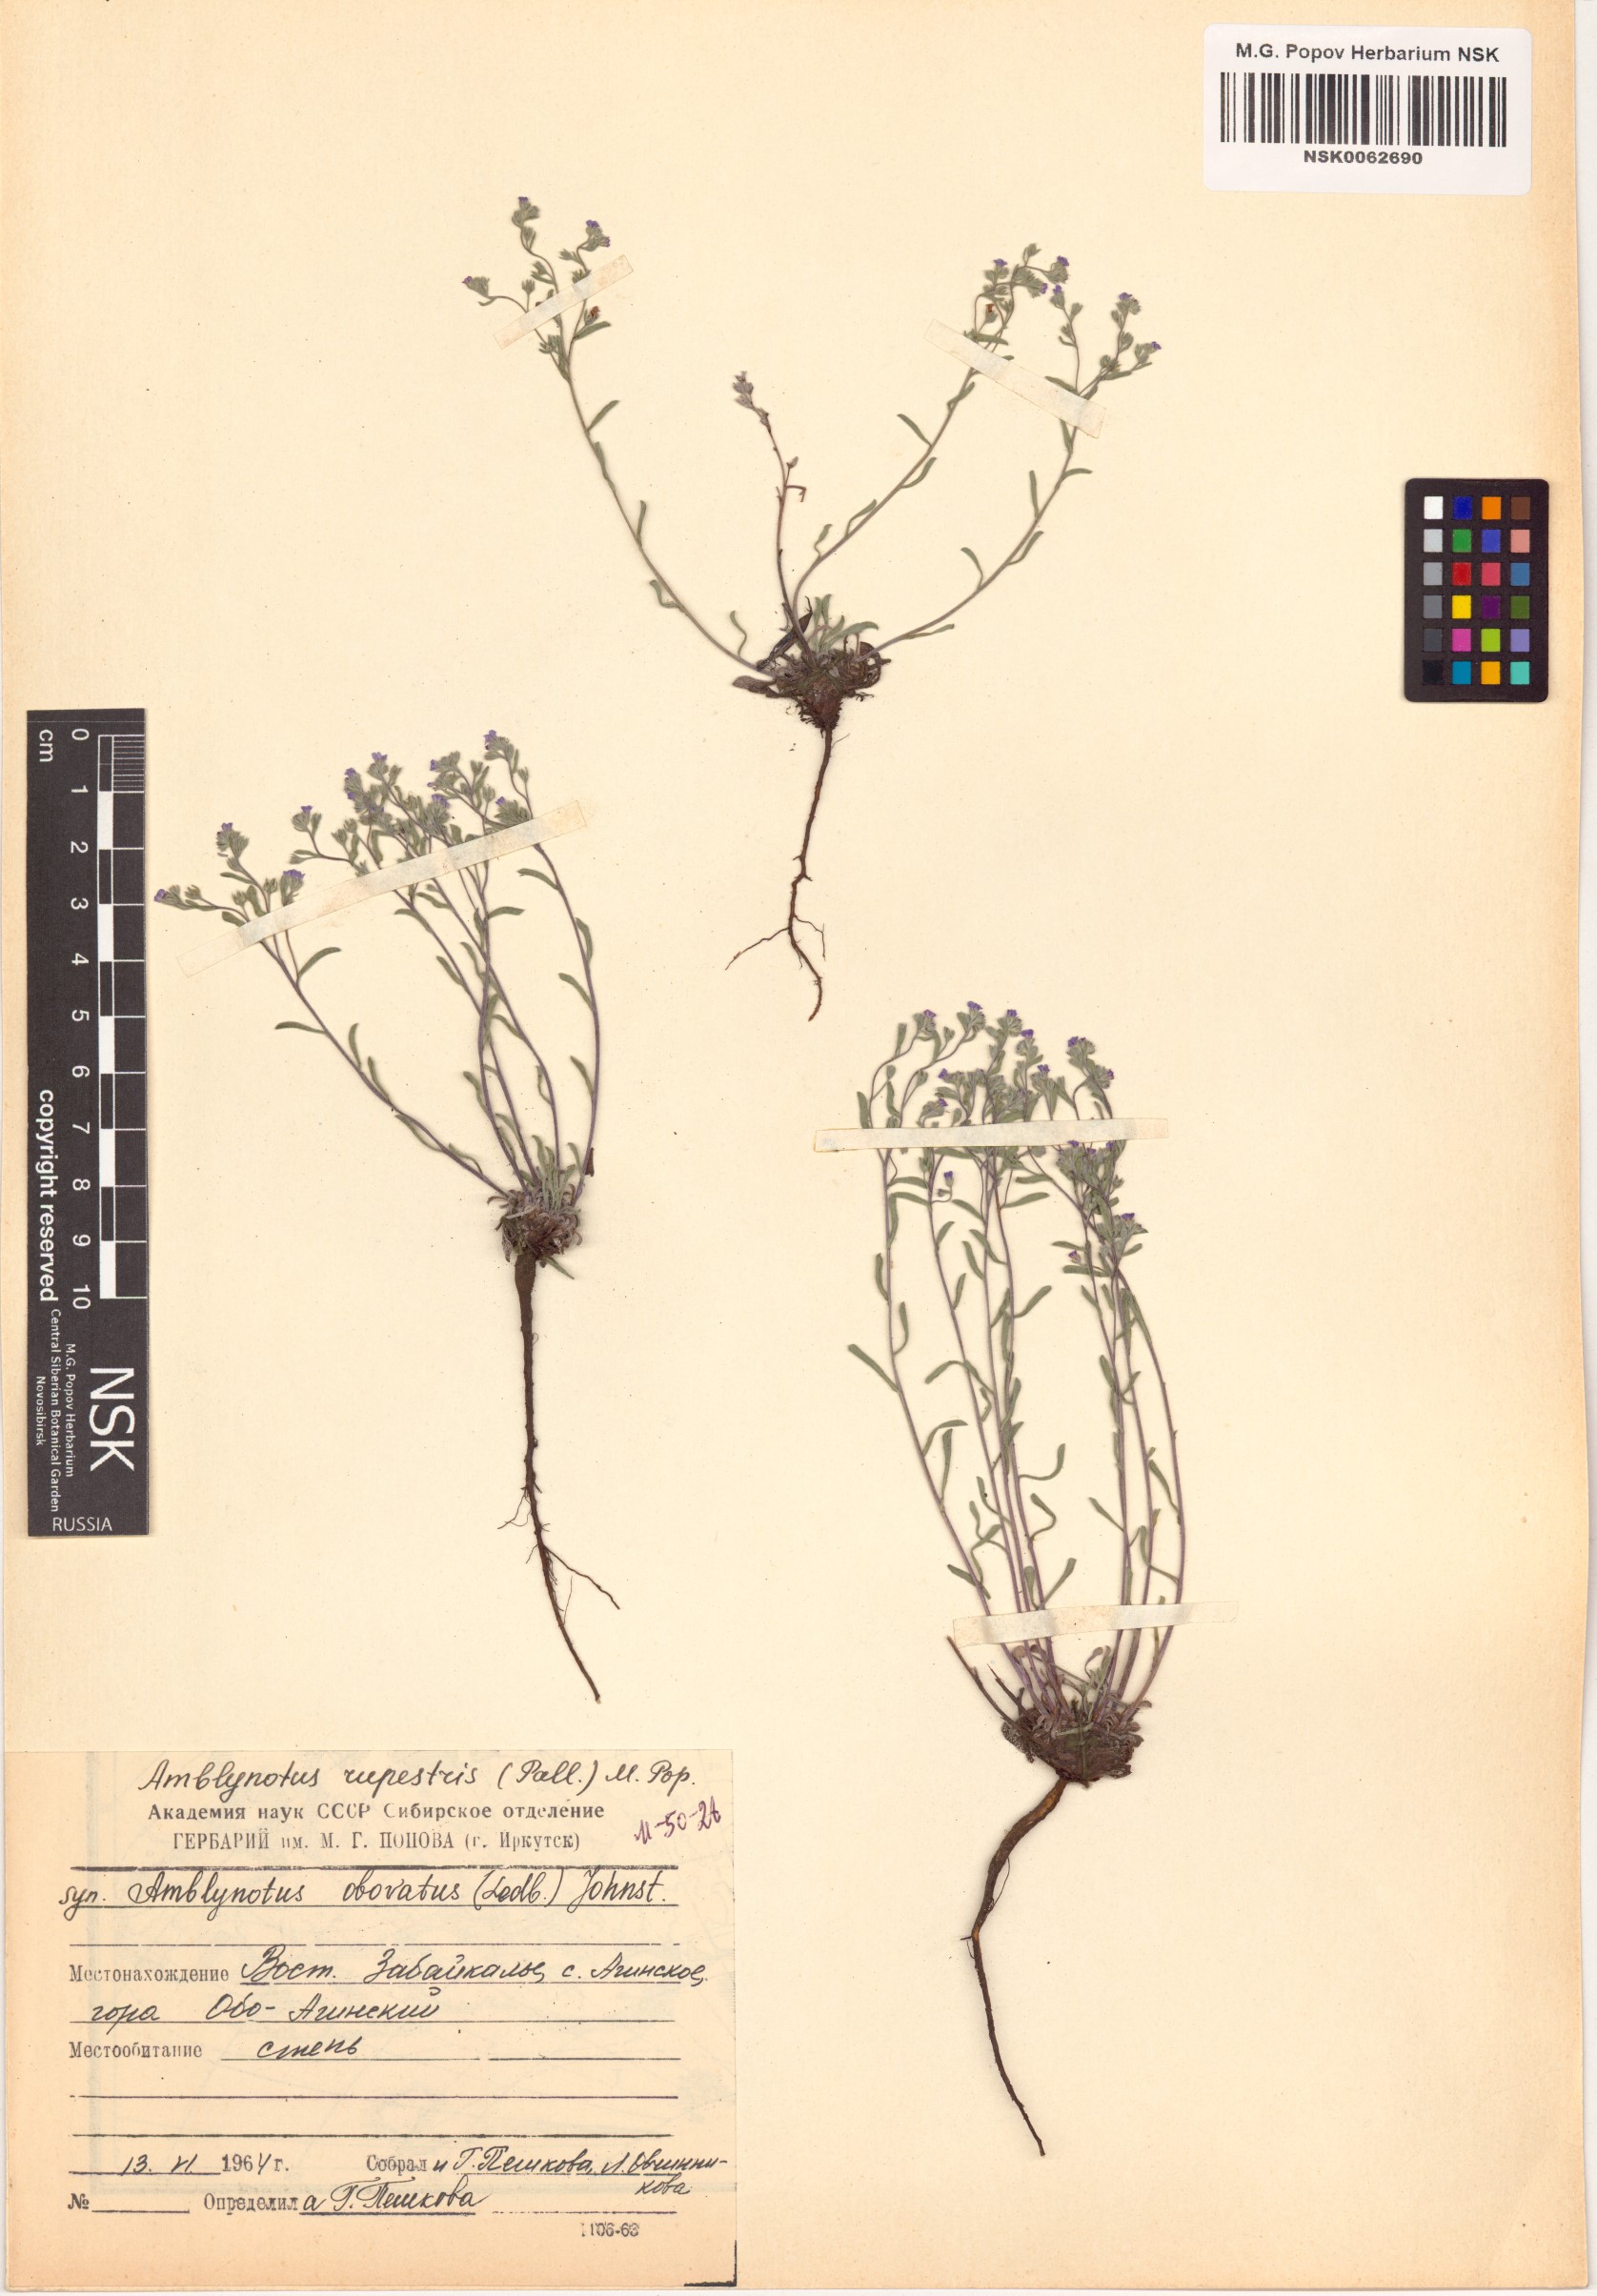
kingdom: Plantae
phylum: Tracheophyta
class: Magnoliopsida
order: Boraginales
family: Boraginaceae
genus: Eritrichium
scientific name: Eritrichium rupestre
